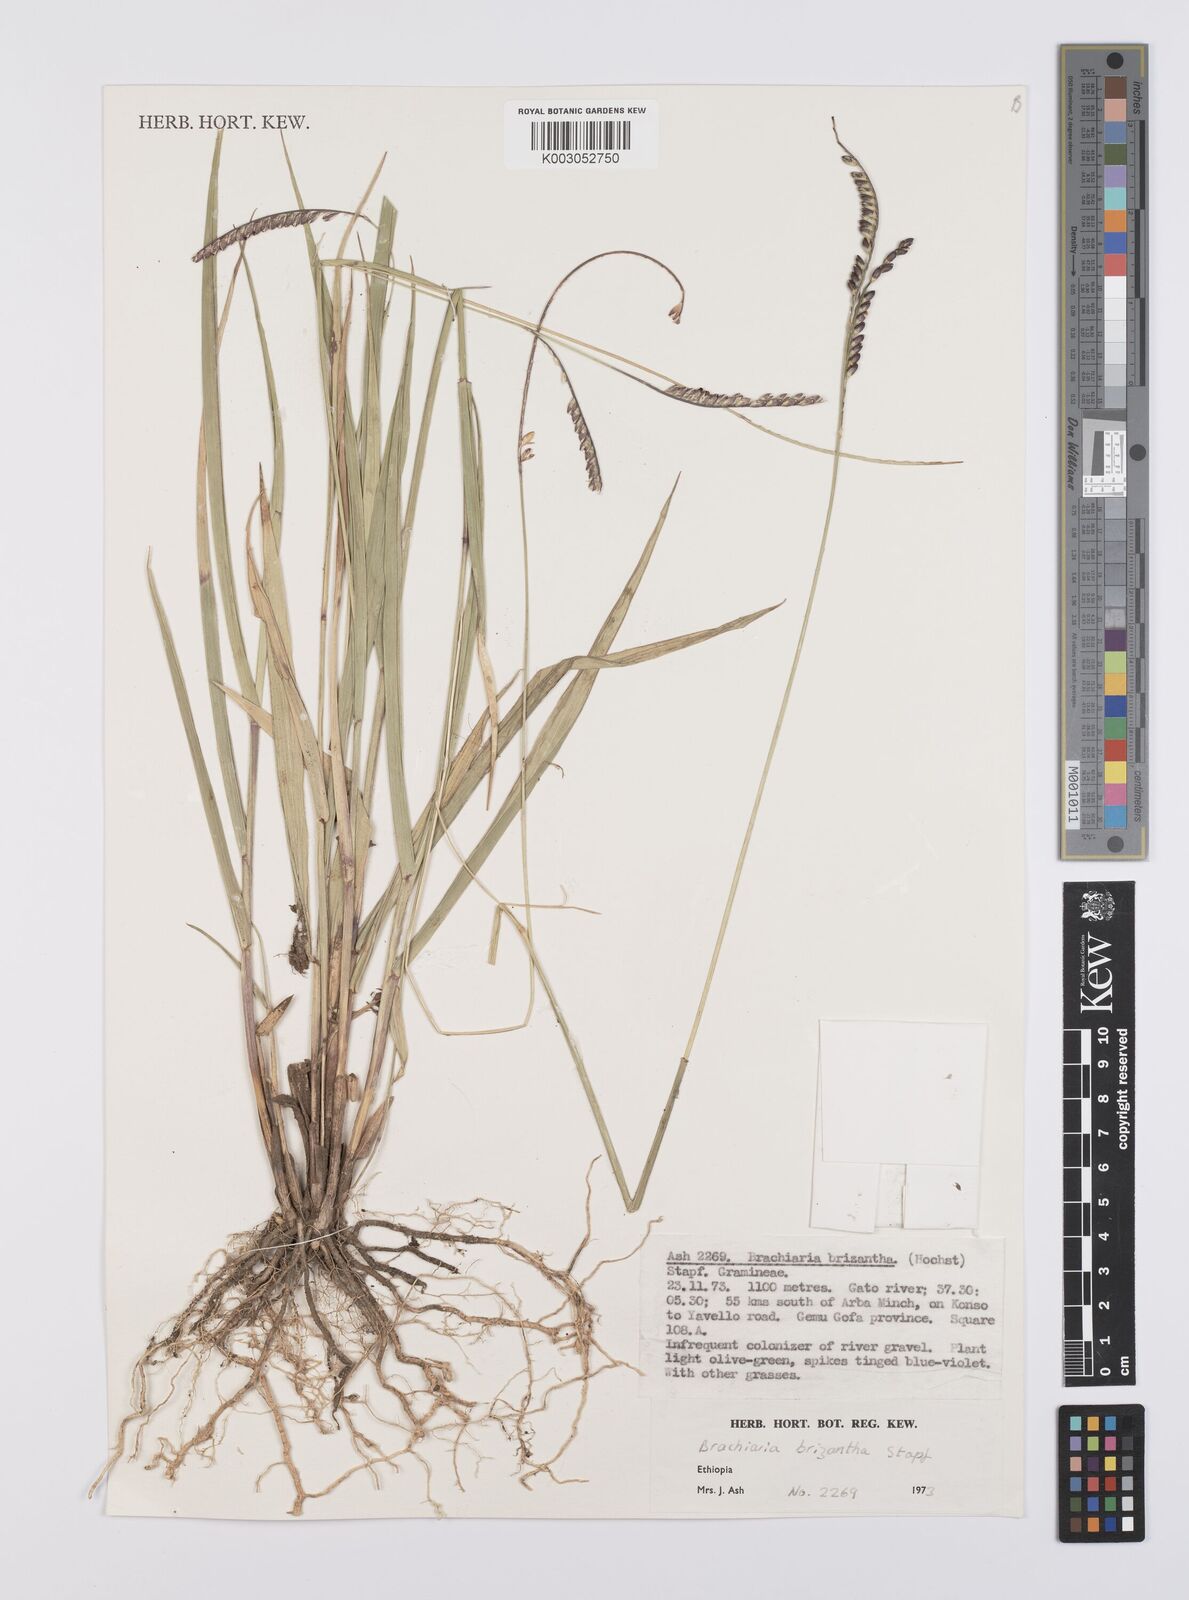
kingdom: Plantae
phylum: Tracheophyta
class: Liliopsida
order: Poales
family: Poaceae
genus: Urochloa
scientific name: Urochloa brizantha
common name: Palisade signalgrass
